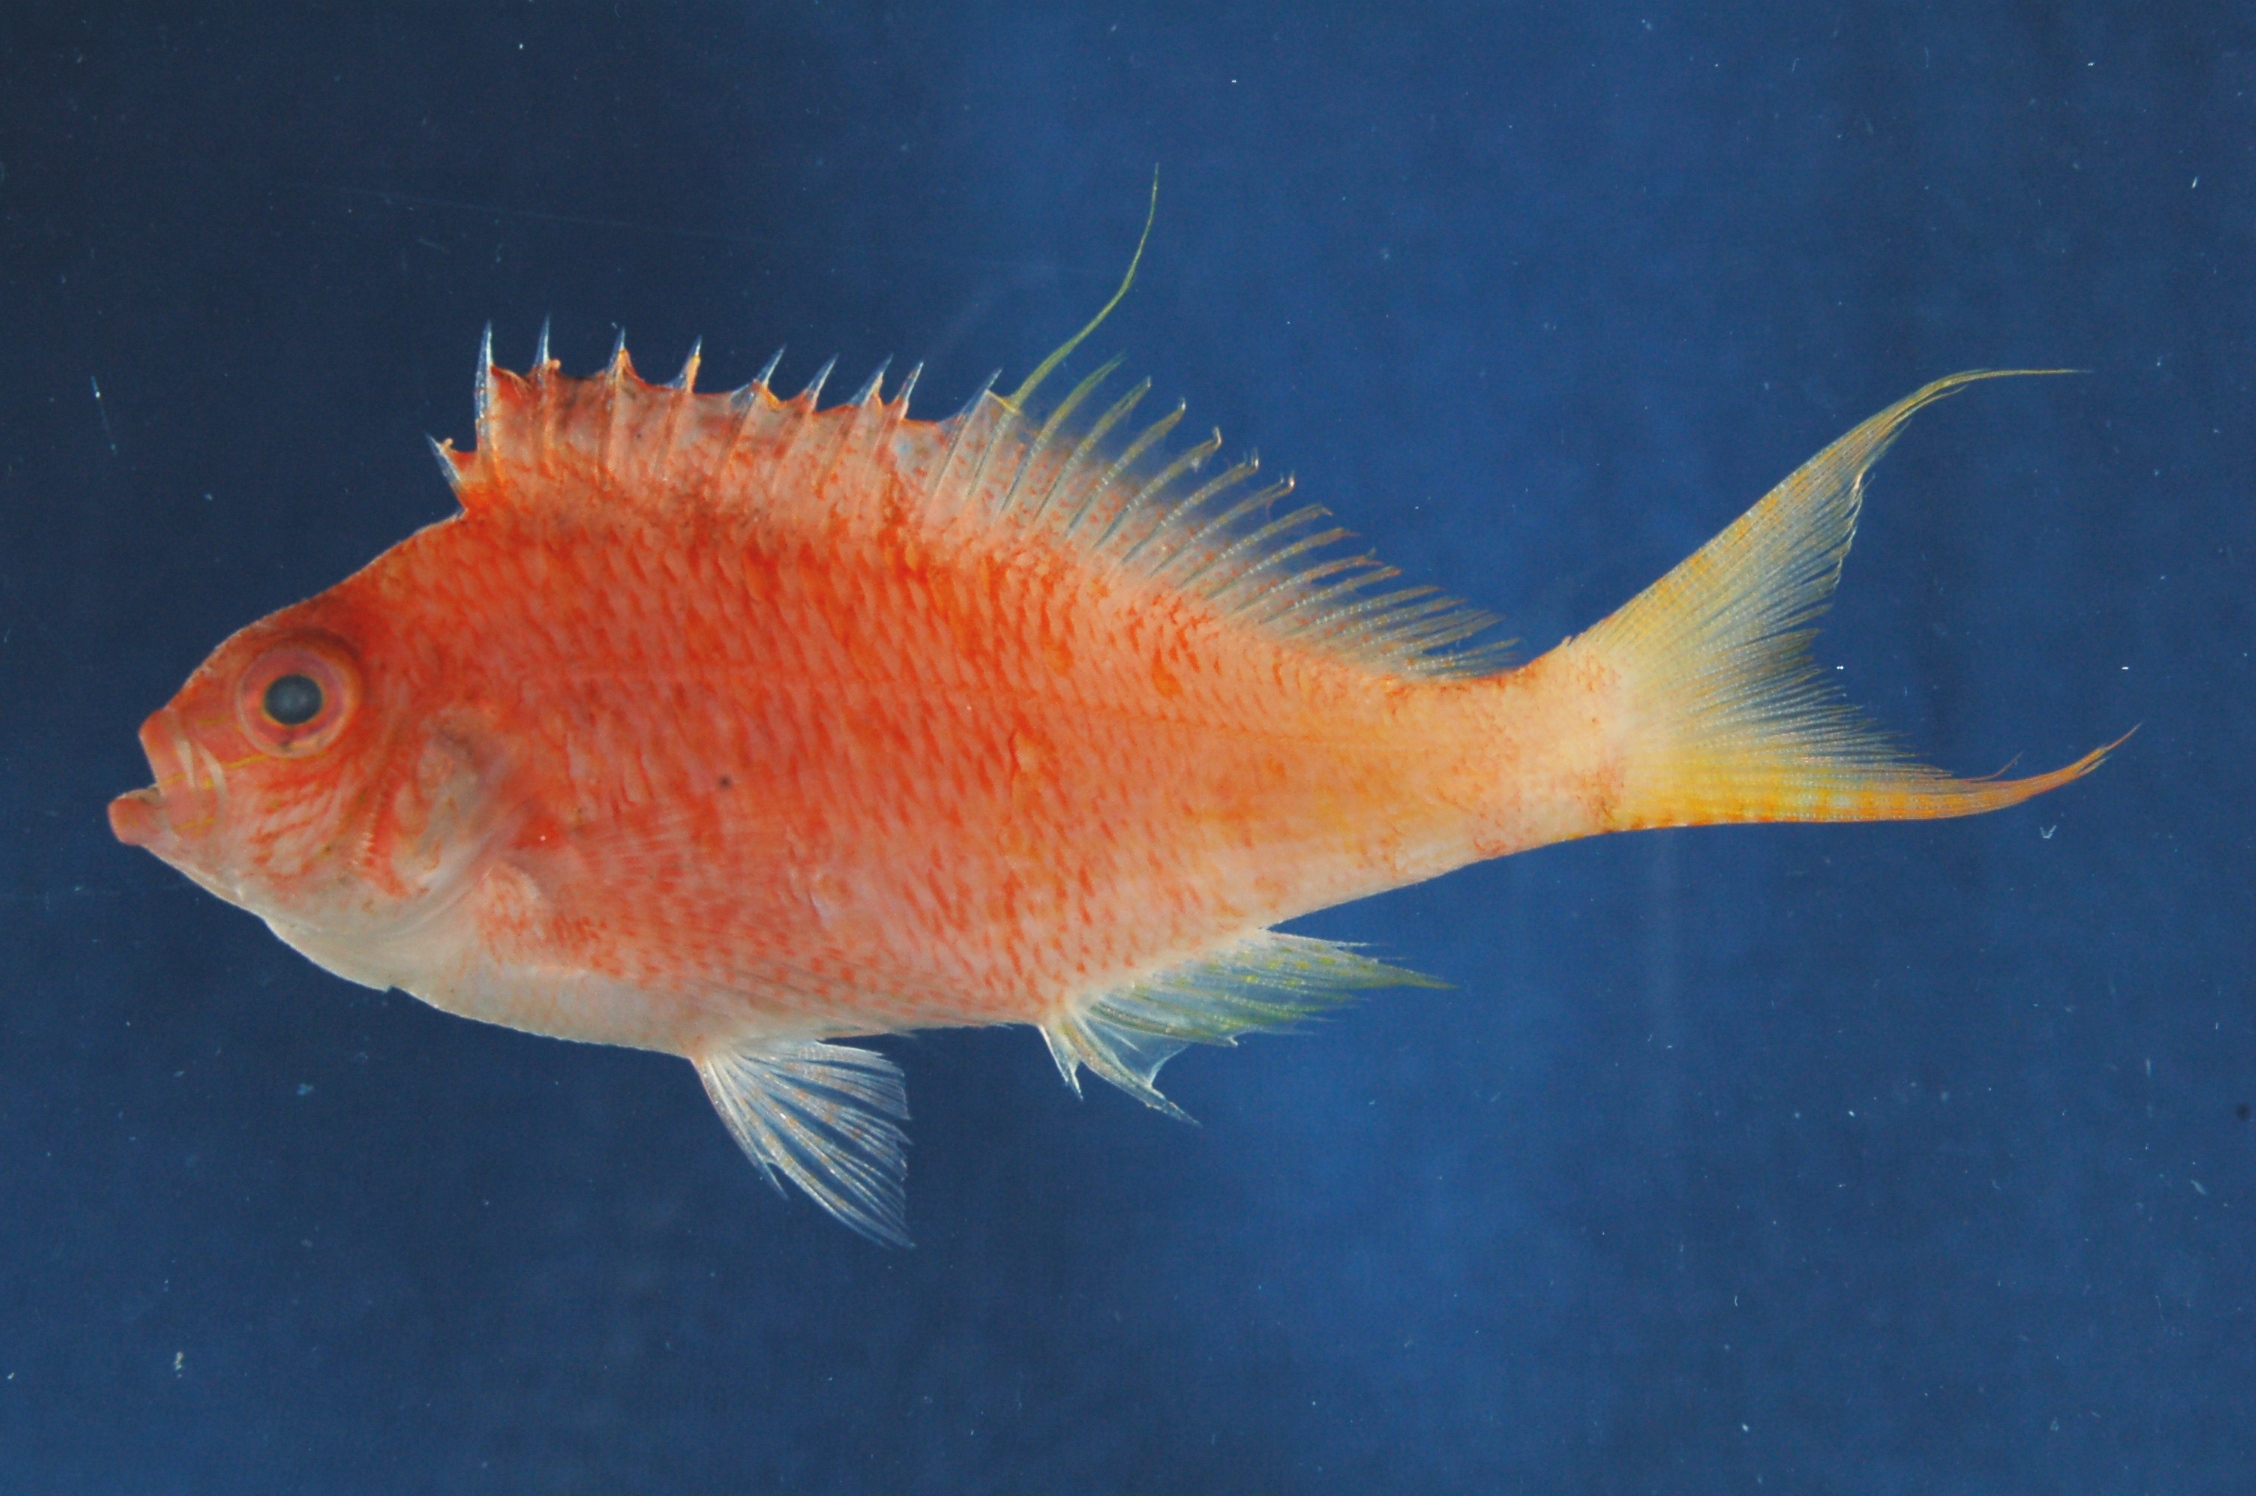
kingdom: Animalia
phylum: Chordata
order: Perciformes
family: Cirrhitidae
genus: Cyprinocirrhites
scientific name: Cyprinocirrhites polyactis
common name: Swallowtail hawkfish
